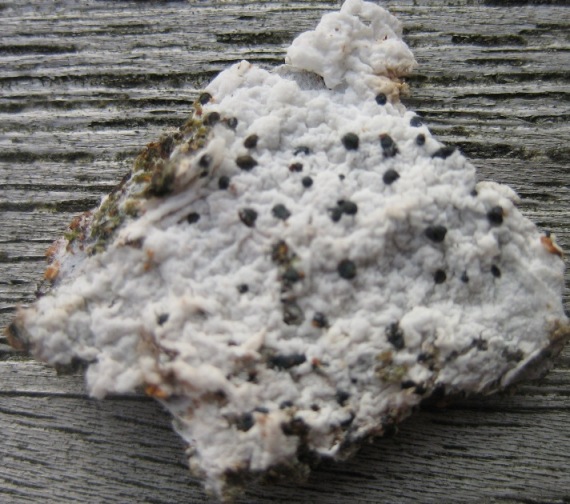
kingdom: Fungi
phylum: Basidiomycota
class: Agaricomycetes
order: Atheliales
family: Atheliaceae
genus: Athelia
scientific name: Athelia decipiens
